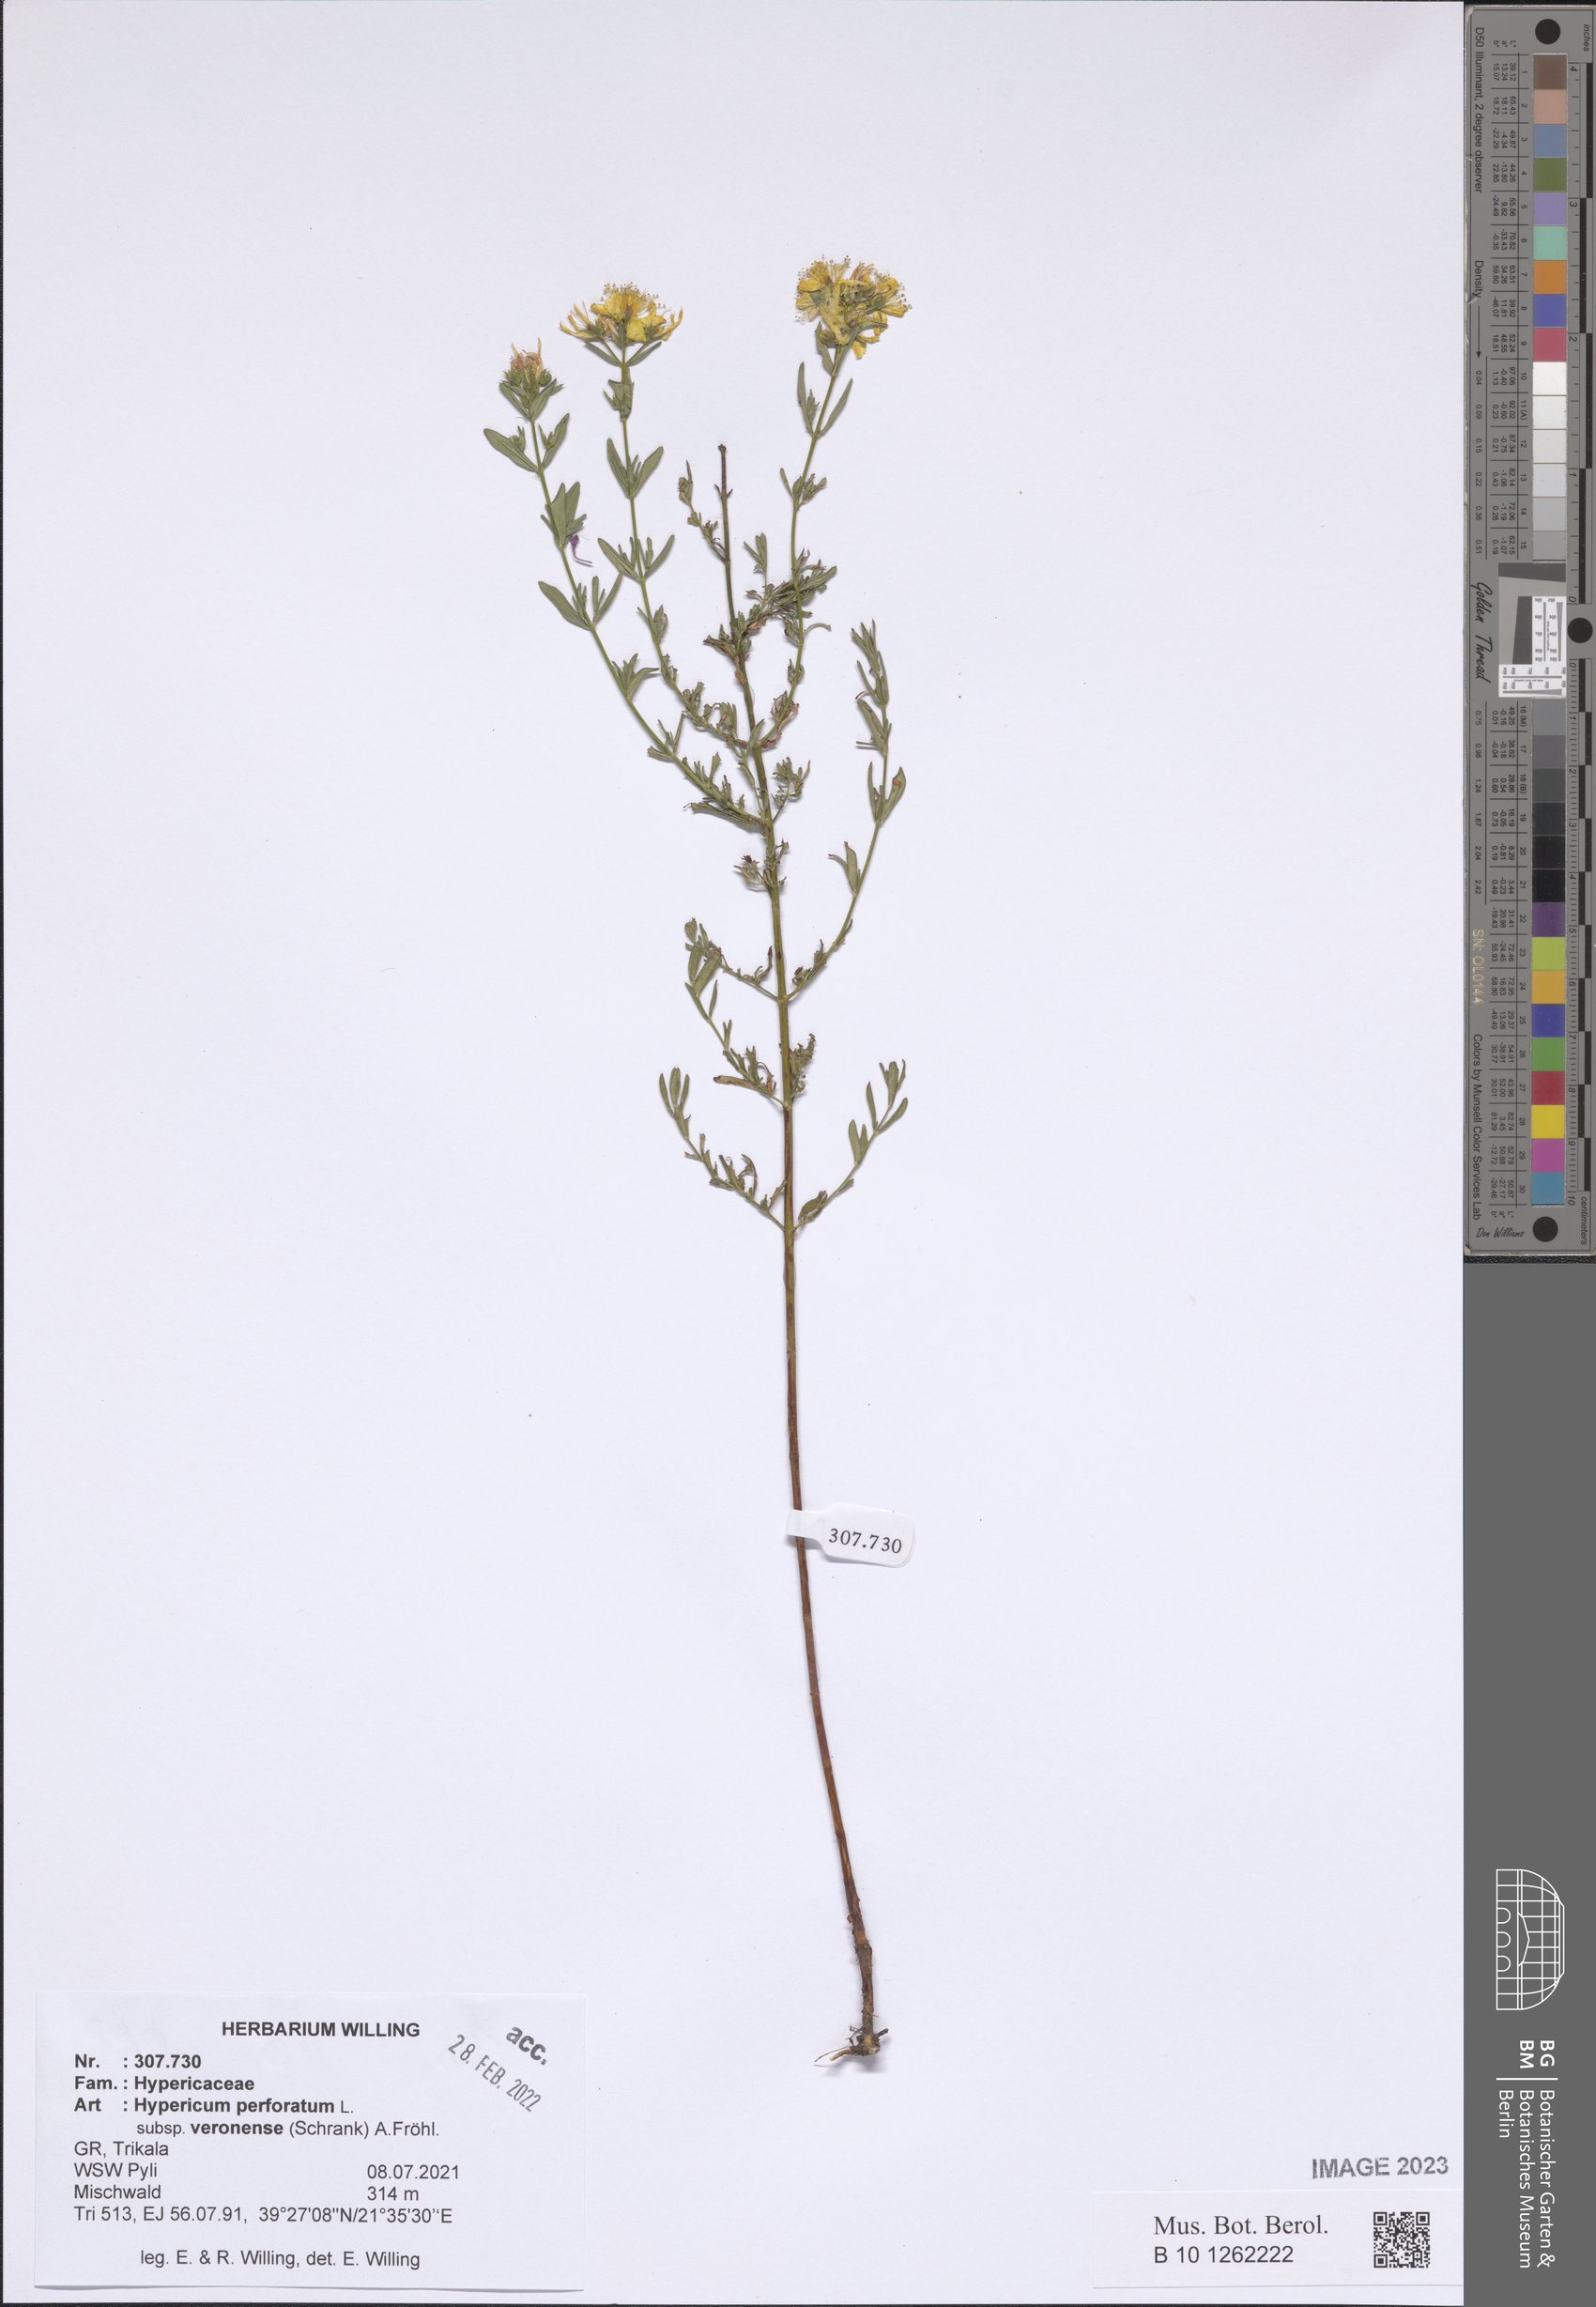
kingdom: Plantae
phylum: Tracheophyta
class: Magnoliopsida
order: Malpighiales
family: Hypericaceae
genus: Hypericum
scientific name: Hypericum veronense
